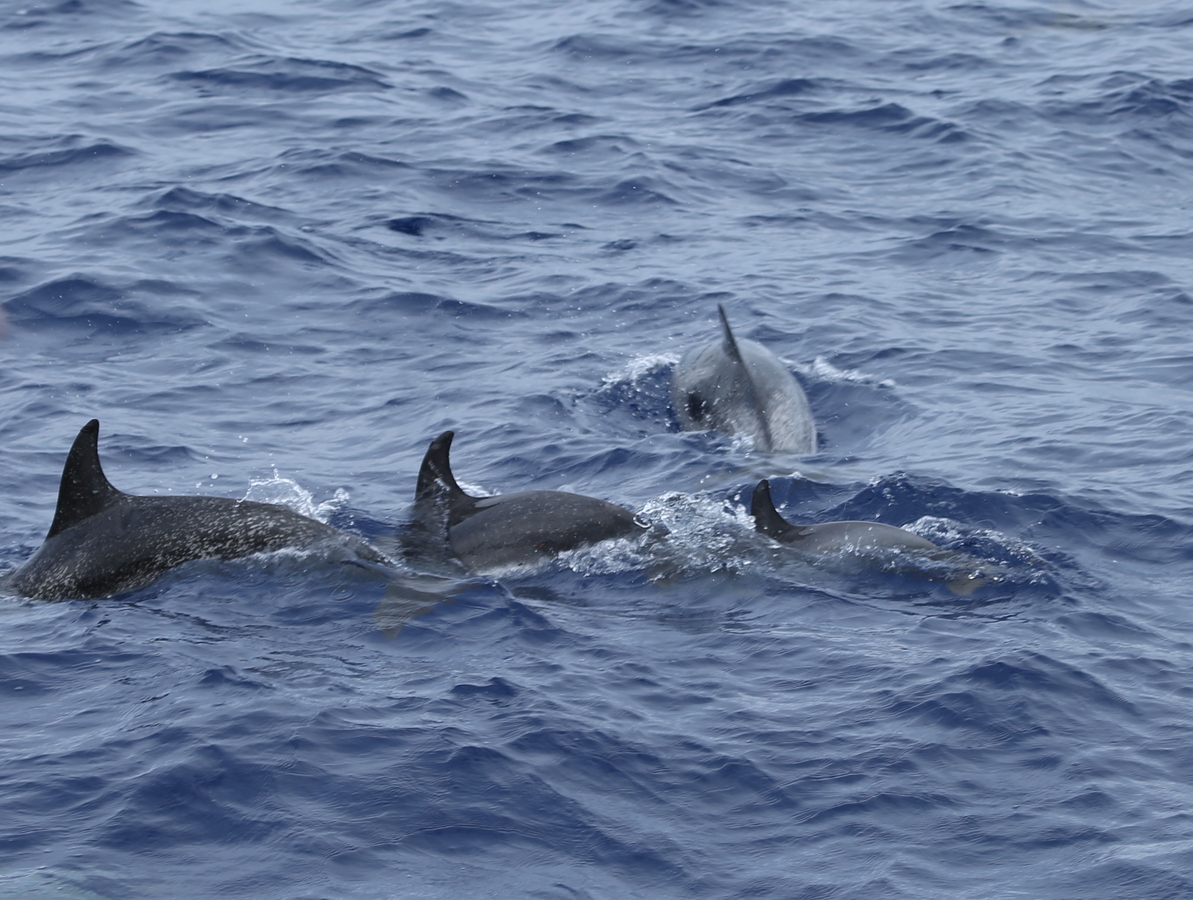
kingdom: Animalia
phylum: Chordata
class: Mammalia
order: Cetacea
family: Delphinidae
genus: Stenella
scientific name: Stenella frontalis
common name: Atlantic spotted dolphin
